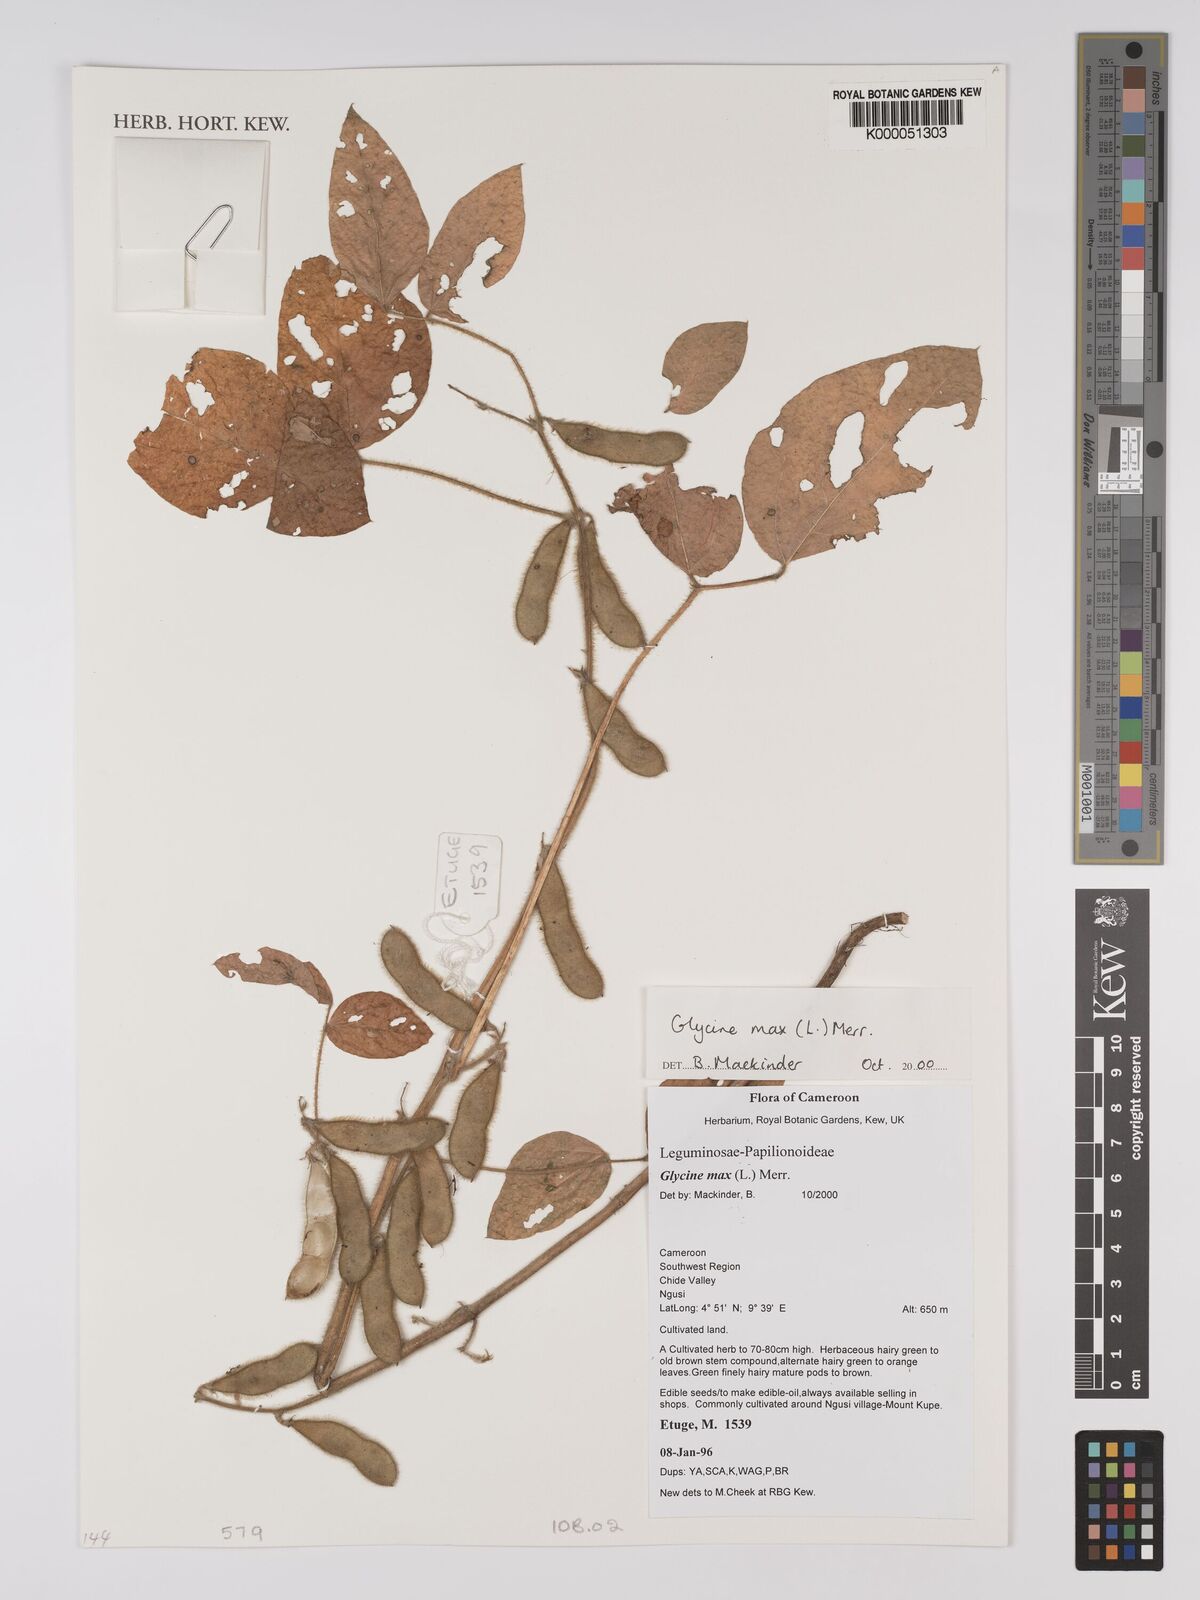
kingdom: Plantae
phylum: Tracheophyta
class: Magnoliopsida
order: Fabales
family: Fabaceae
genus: Glycine
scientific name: Glycine max
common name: Soya-bean
